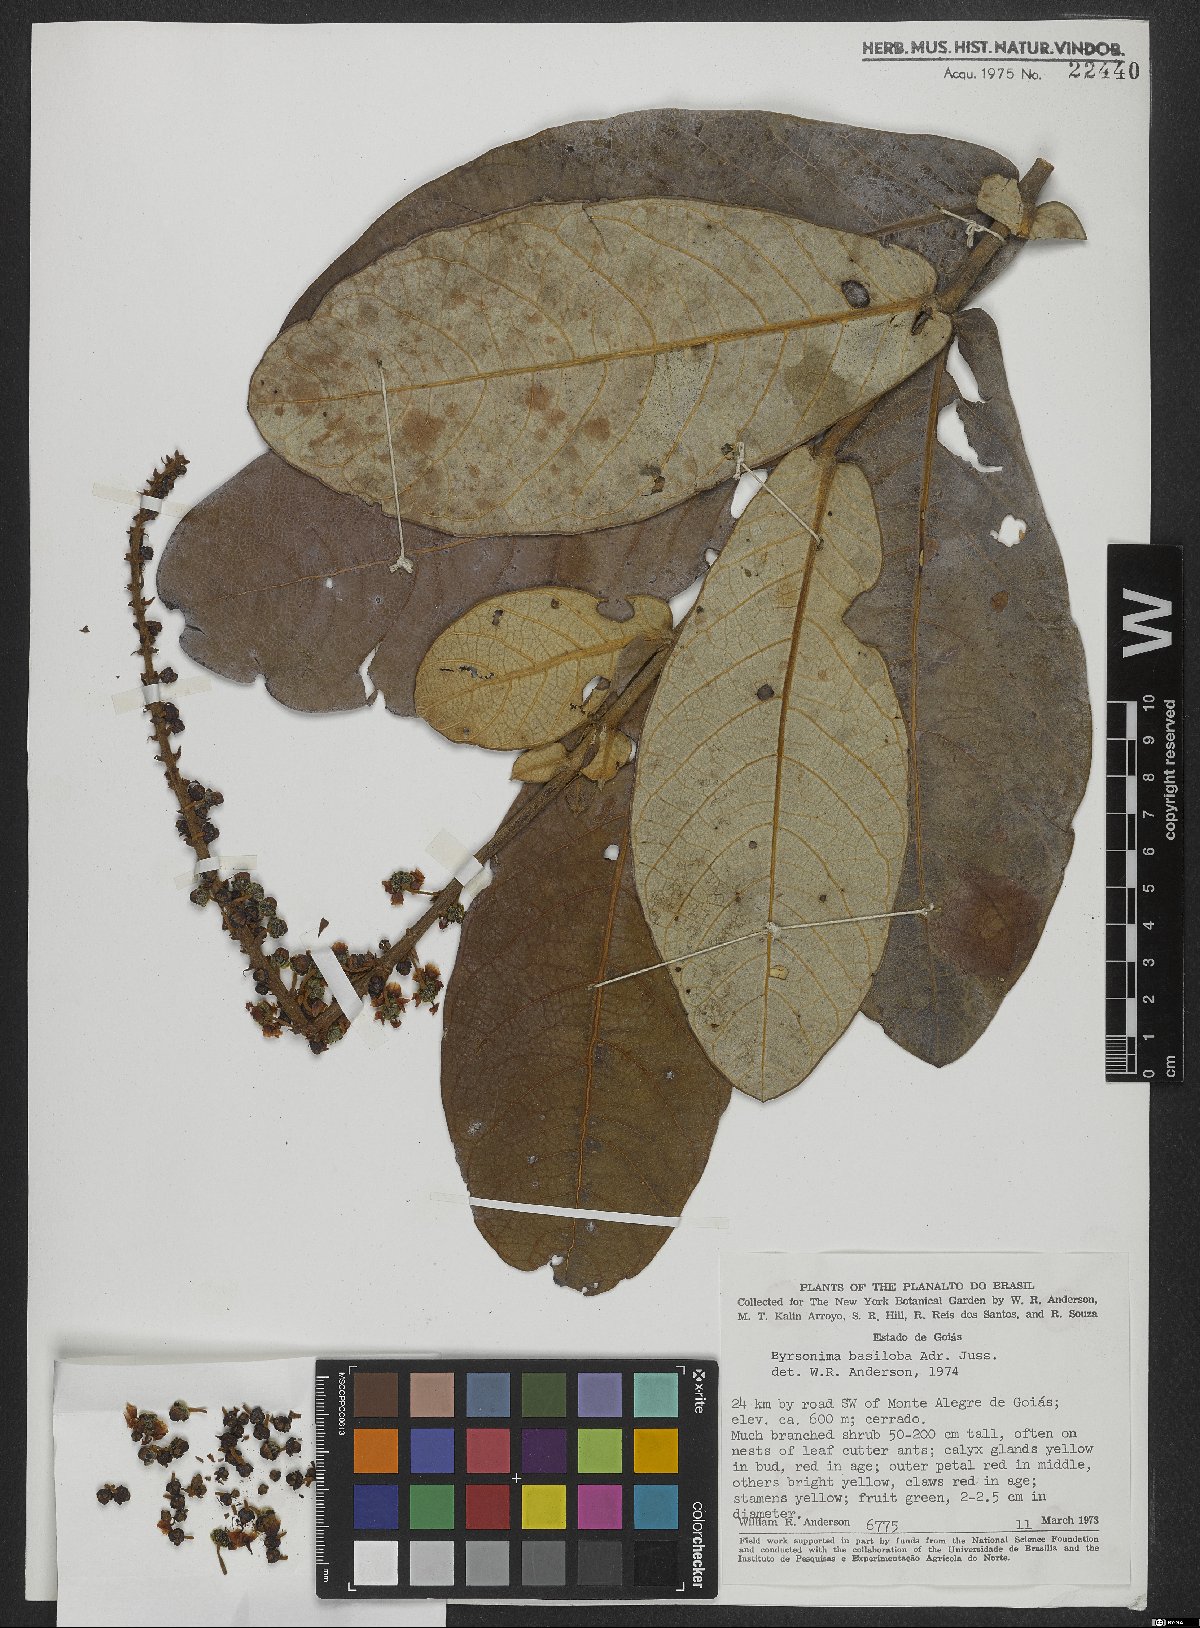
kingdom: Plantae
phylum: Tracheophyta
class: Magnoliopsida
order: Malpighiales
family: Malpighiaceae
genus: Byrsonima
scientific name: Byrsonima basiloba
